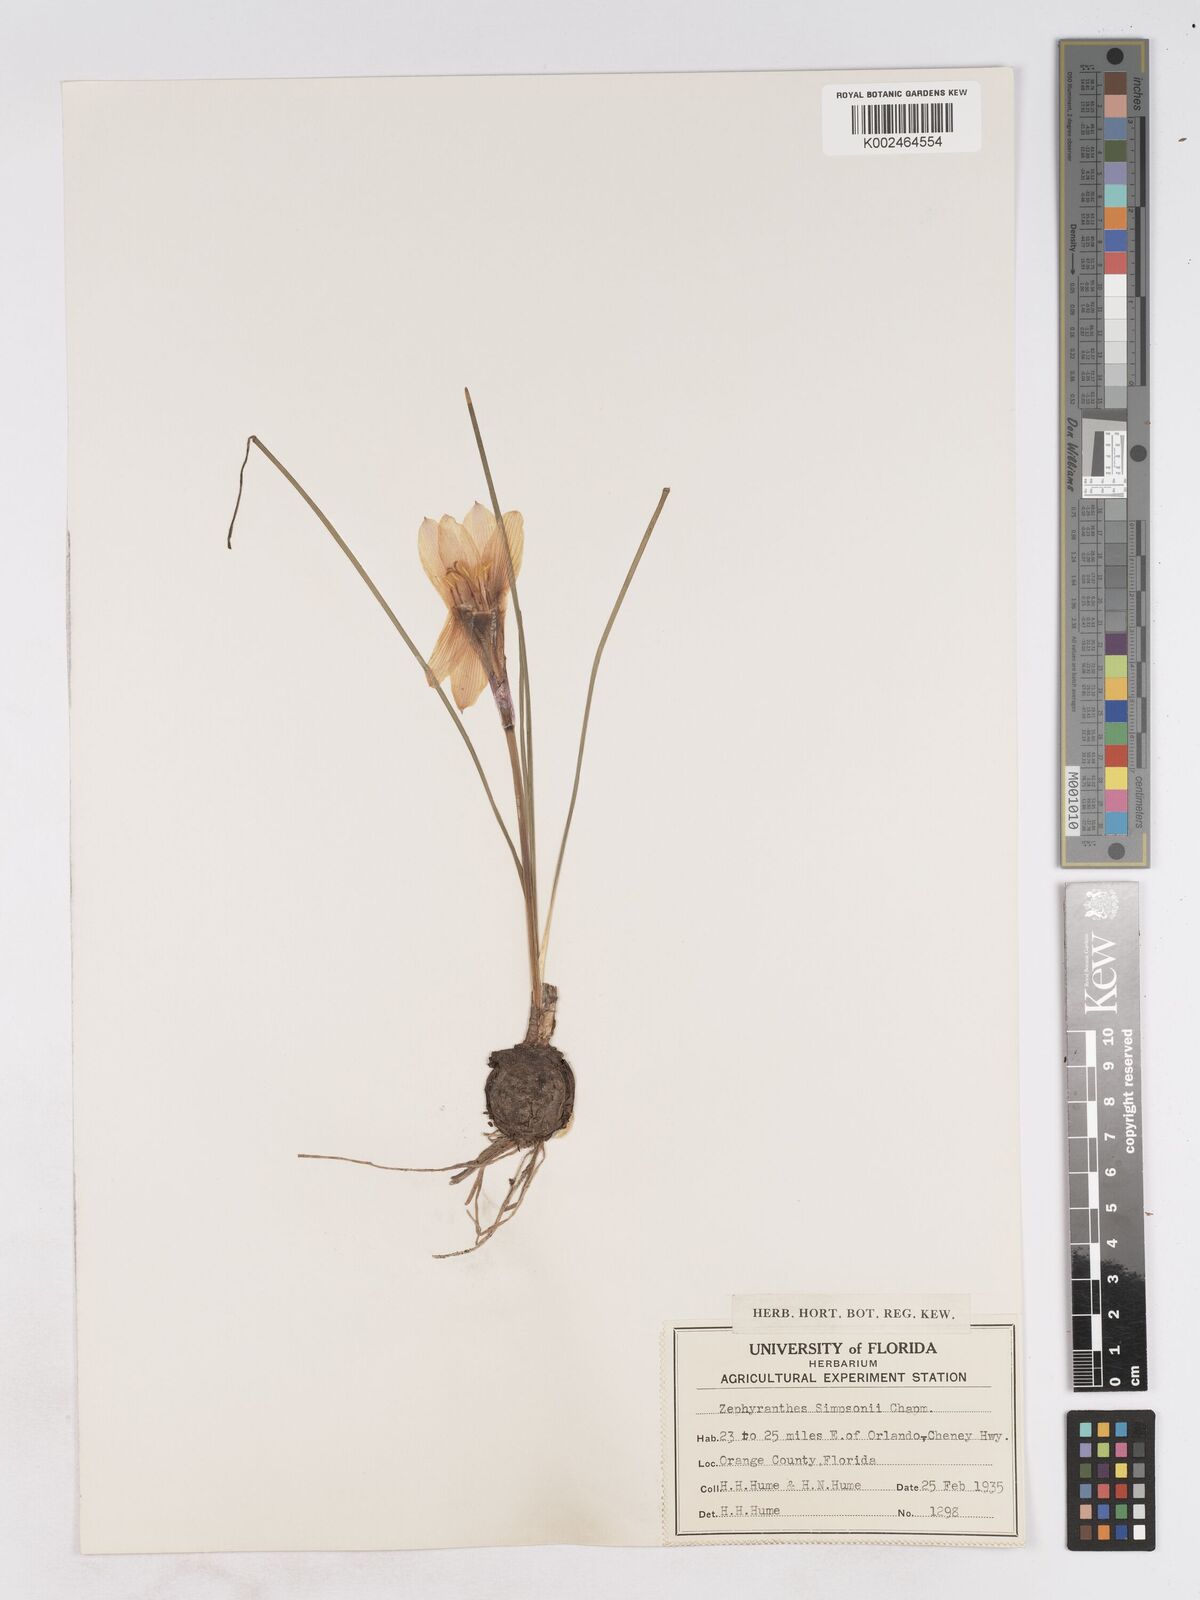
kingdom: Plantae
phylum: Tracheophyta
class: Liliopsida
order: Asparagales
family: Amaryllidaceae
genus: Zephyranthes
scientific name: Zephyranthes simpsonii
